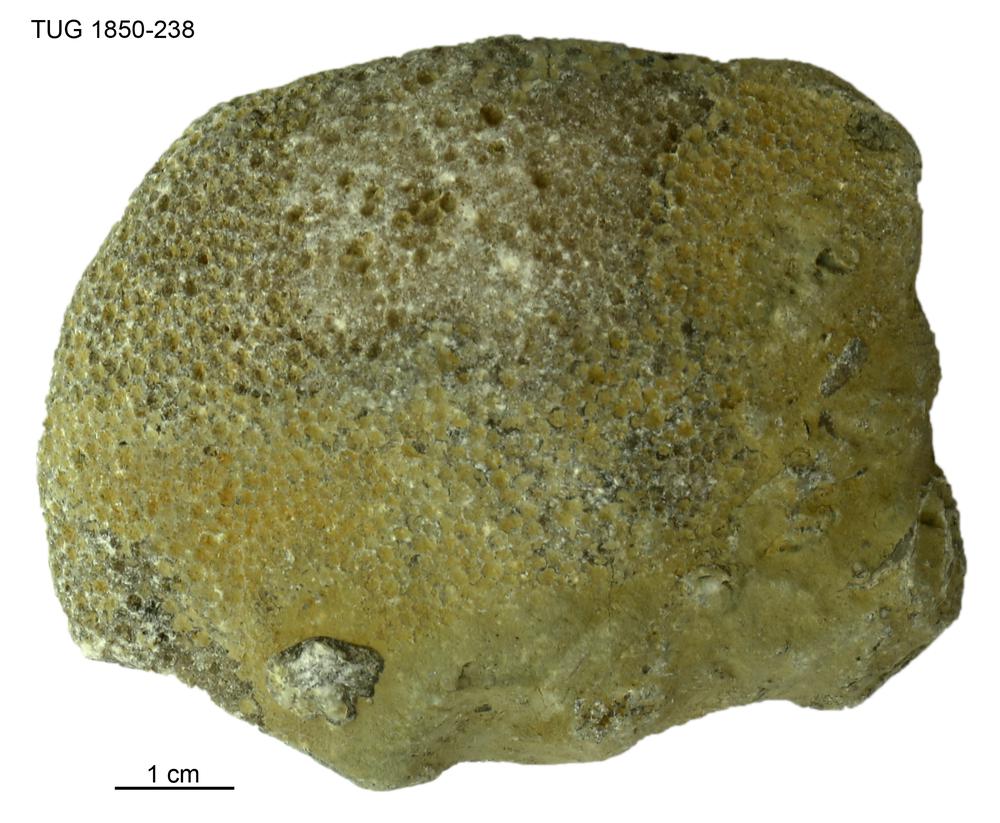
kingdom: Animalia
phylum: Cnidaria
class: Anthozoa
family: Favositidae
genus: Favosites
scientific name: Favosites
